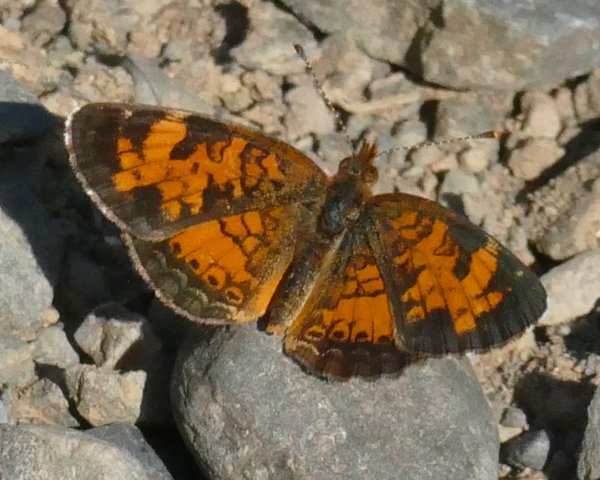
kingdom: Animalia
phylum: Arthropoda
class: Insecta
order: Lepidoptera
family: Nymphalidae
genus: Phyciodes
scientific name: Phyciodes tharos
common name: Northern Crescent
